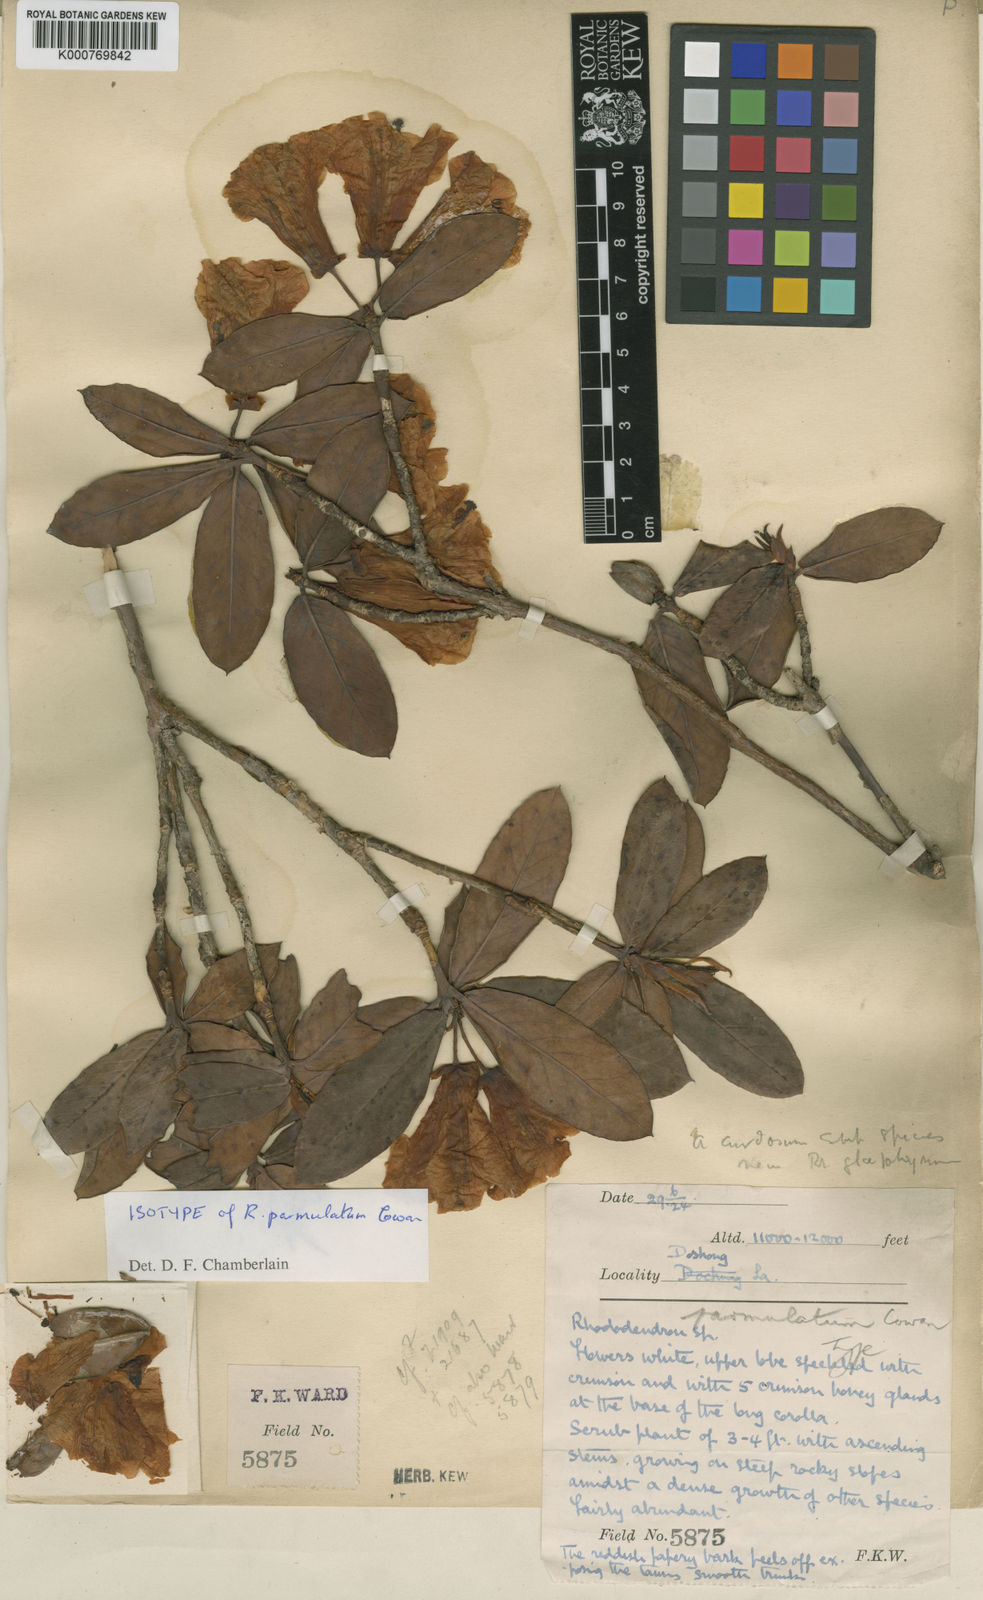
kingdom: Plantae
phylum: Tracheophyta
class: Magnoliopsida
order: Ericales
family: Ericaceae
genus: Rhododendron
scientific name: Rhododendron parmulatum
